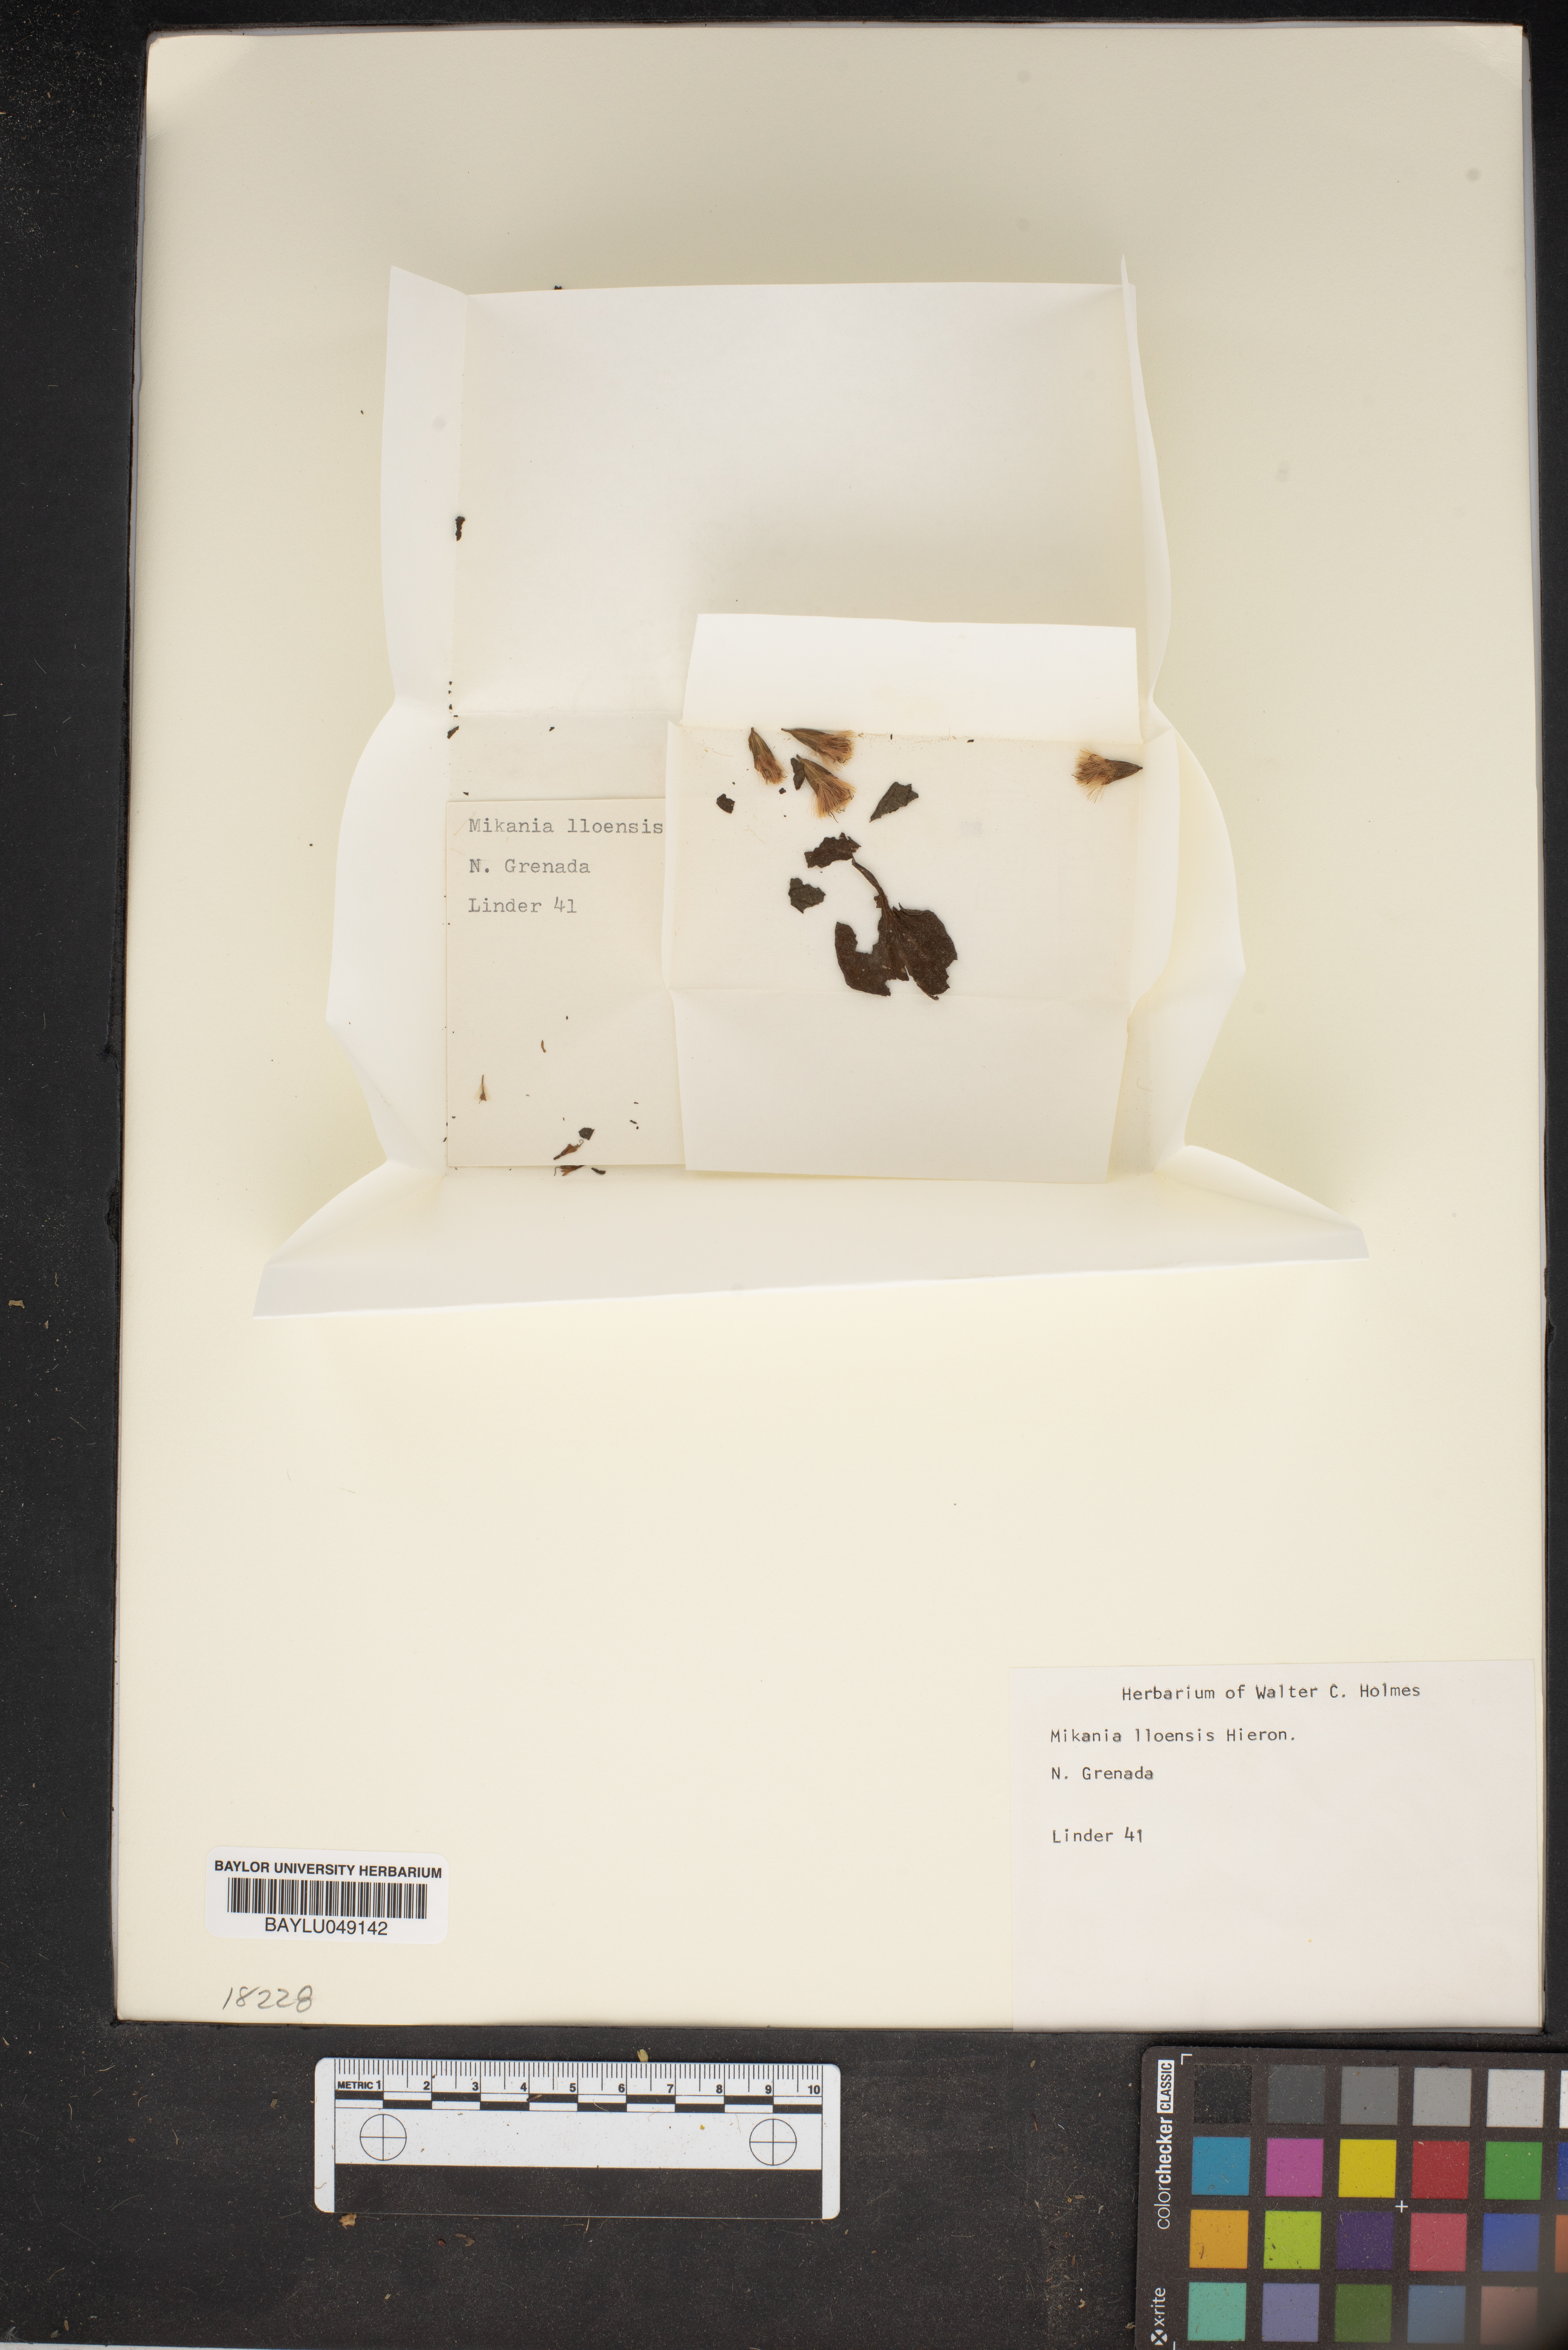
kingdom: Plantae
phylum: Tracheophyta
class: Magnoliopsida
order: Asterales
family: Asteraceae
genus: Mikania
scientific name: Mikania
